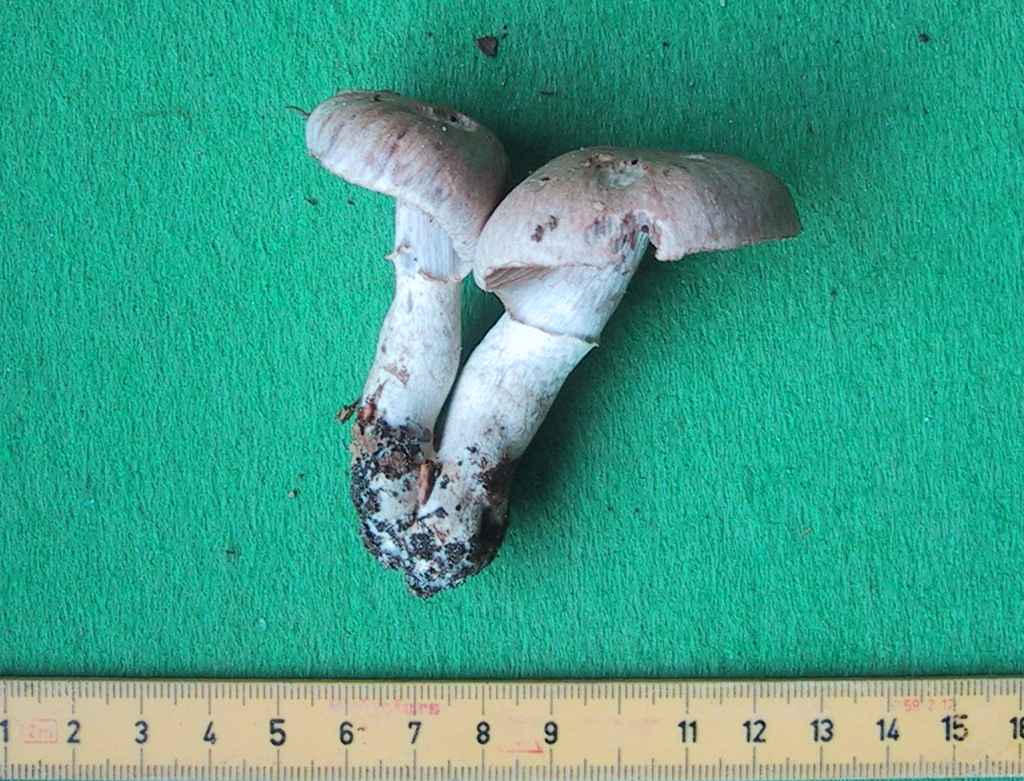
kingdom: Fungi
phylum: Basidiomycota
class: Agaricomycetes
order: Agaricales
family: Cortinariaceae
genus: Cortinarius
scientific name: Cortinarius torvus
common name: champignonagtig slørhat
